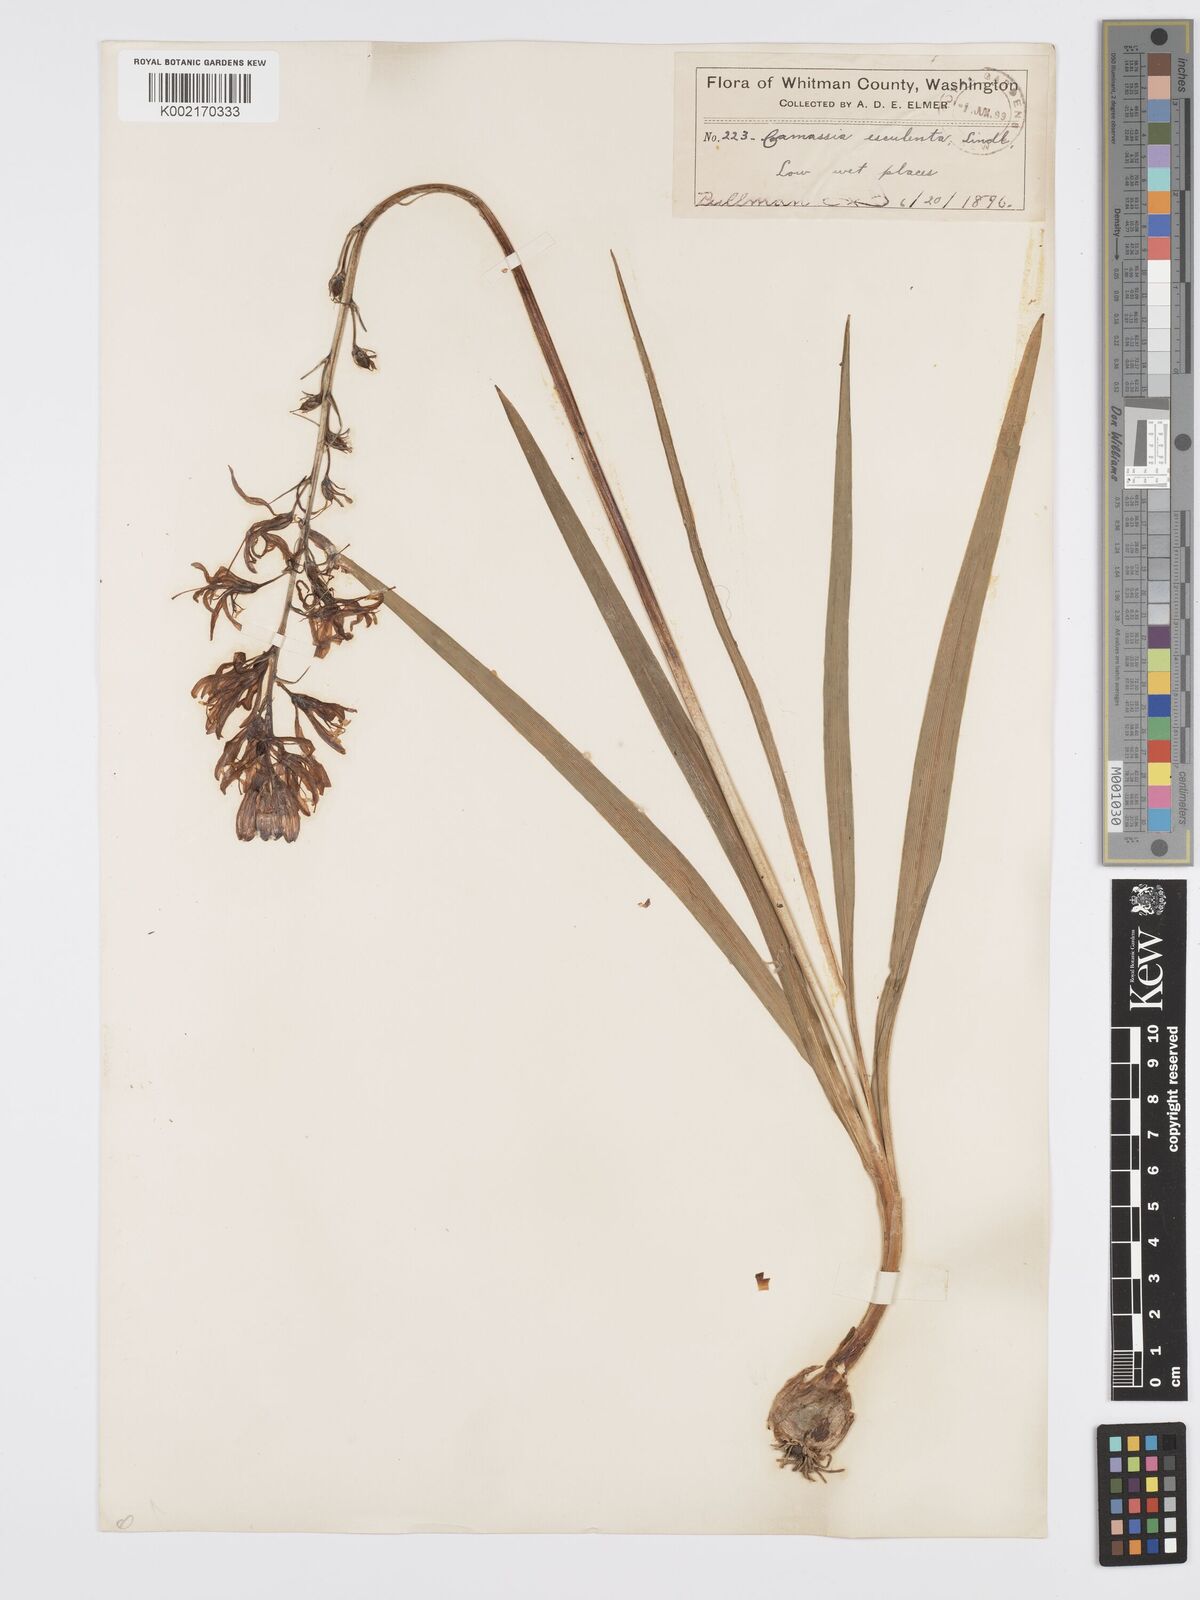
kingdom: Plantae
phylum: Tracheophyta
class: Liliopsida
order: Asparagales
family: Asparagaceae
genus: Camassia
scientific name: Camassia quamash
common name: Common camas
